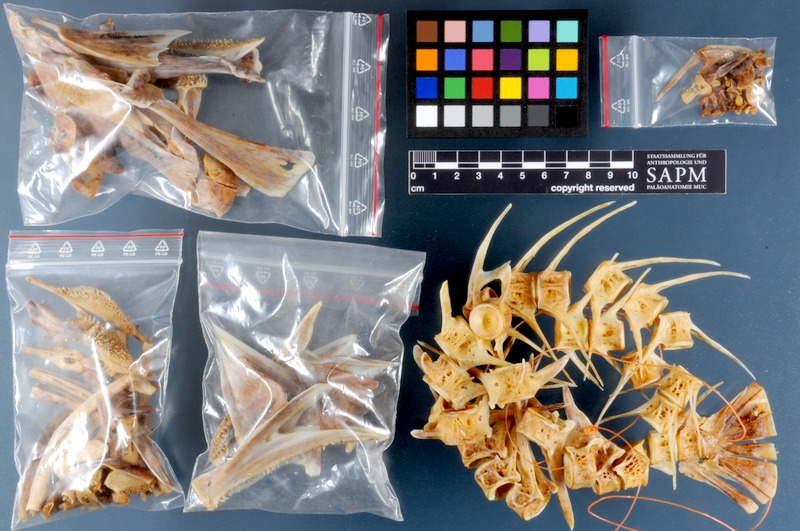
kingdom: Animalia
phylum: Chordata
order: Perciformes
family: Polyprionidae
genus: Polyprion
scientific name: Polyprion americanus
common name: Wreckfish
